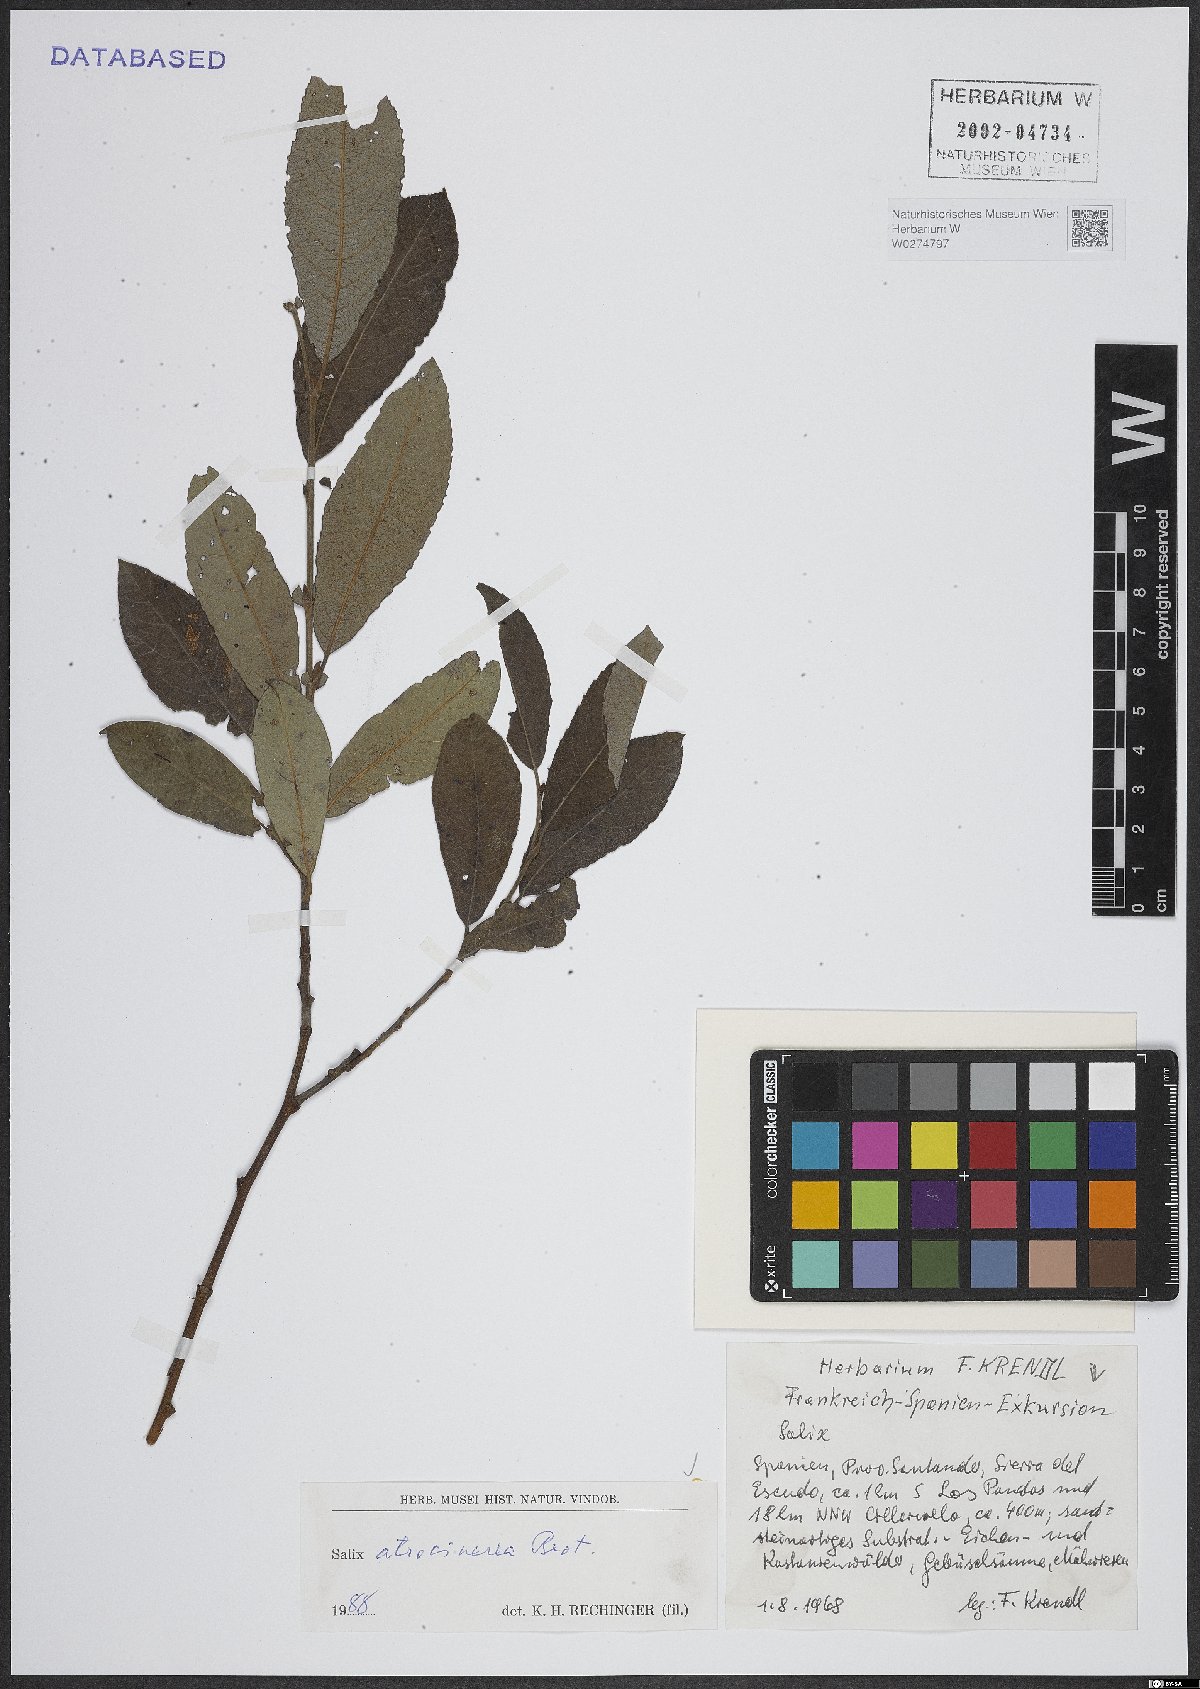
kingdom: Plantae
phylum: Tracheophyta
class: Magnoliopsida
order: Malpighiales
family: Salicaceae
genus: Salix
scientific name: Salix atrocinerea
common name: Rusty willow
